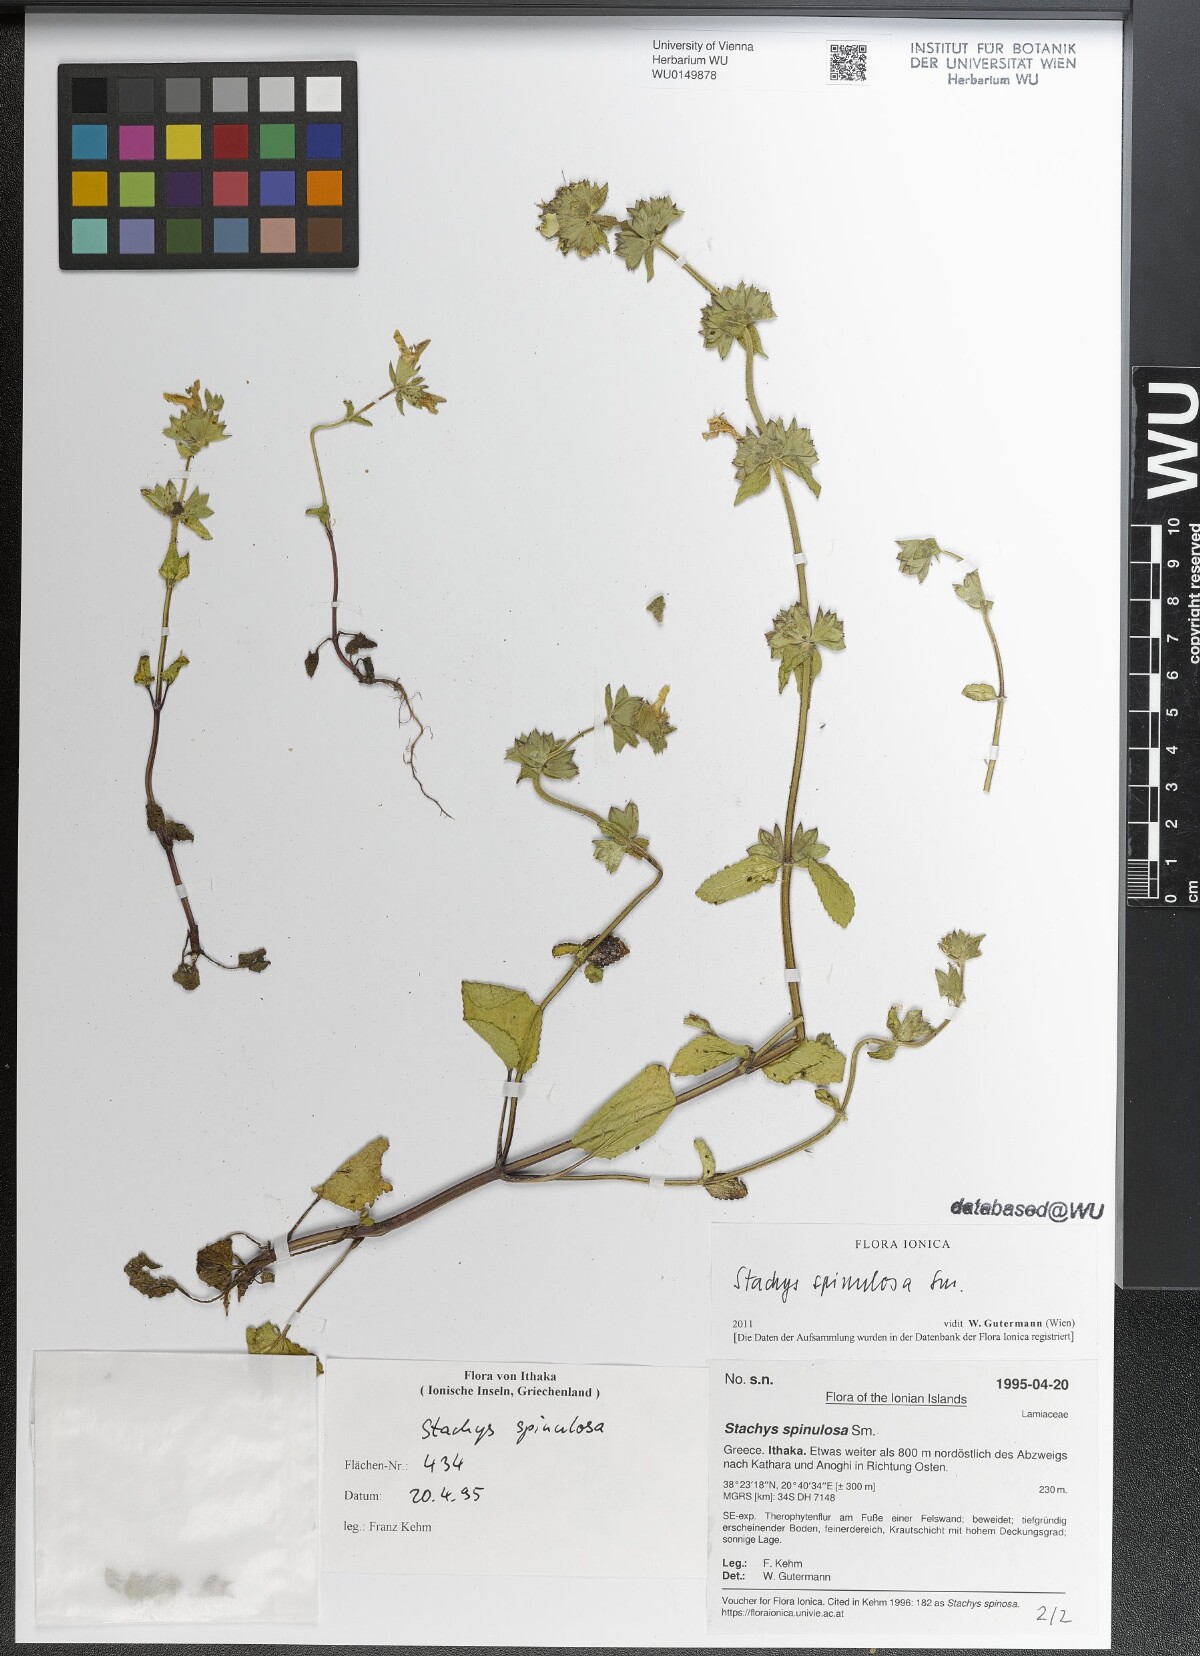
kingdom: Plantae
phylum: Tracheophyta
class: Magnoliopsida
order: Lamiales
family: Lamiaceae
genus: Stachys
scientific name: Stachys spinulosa
